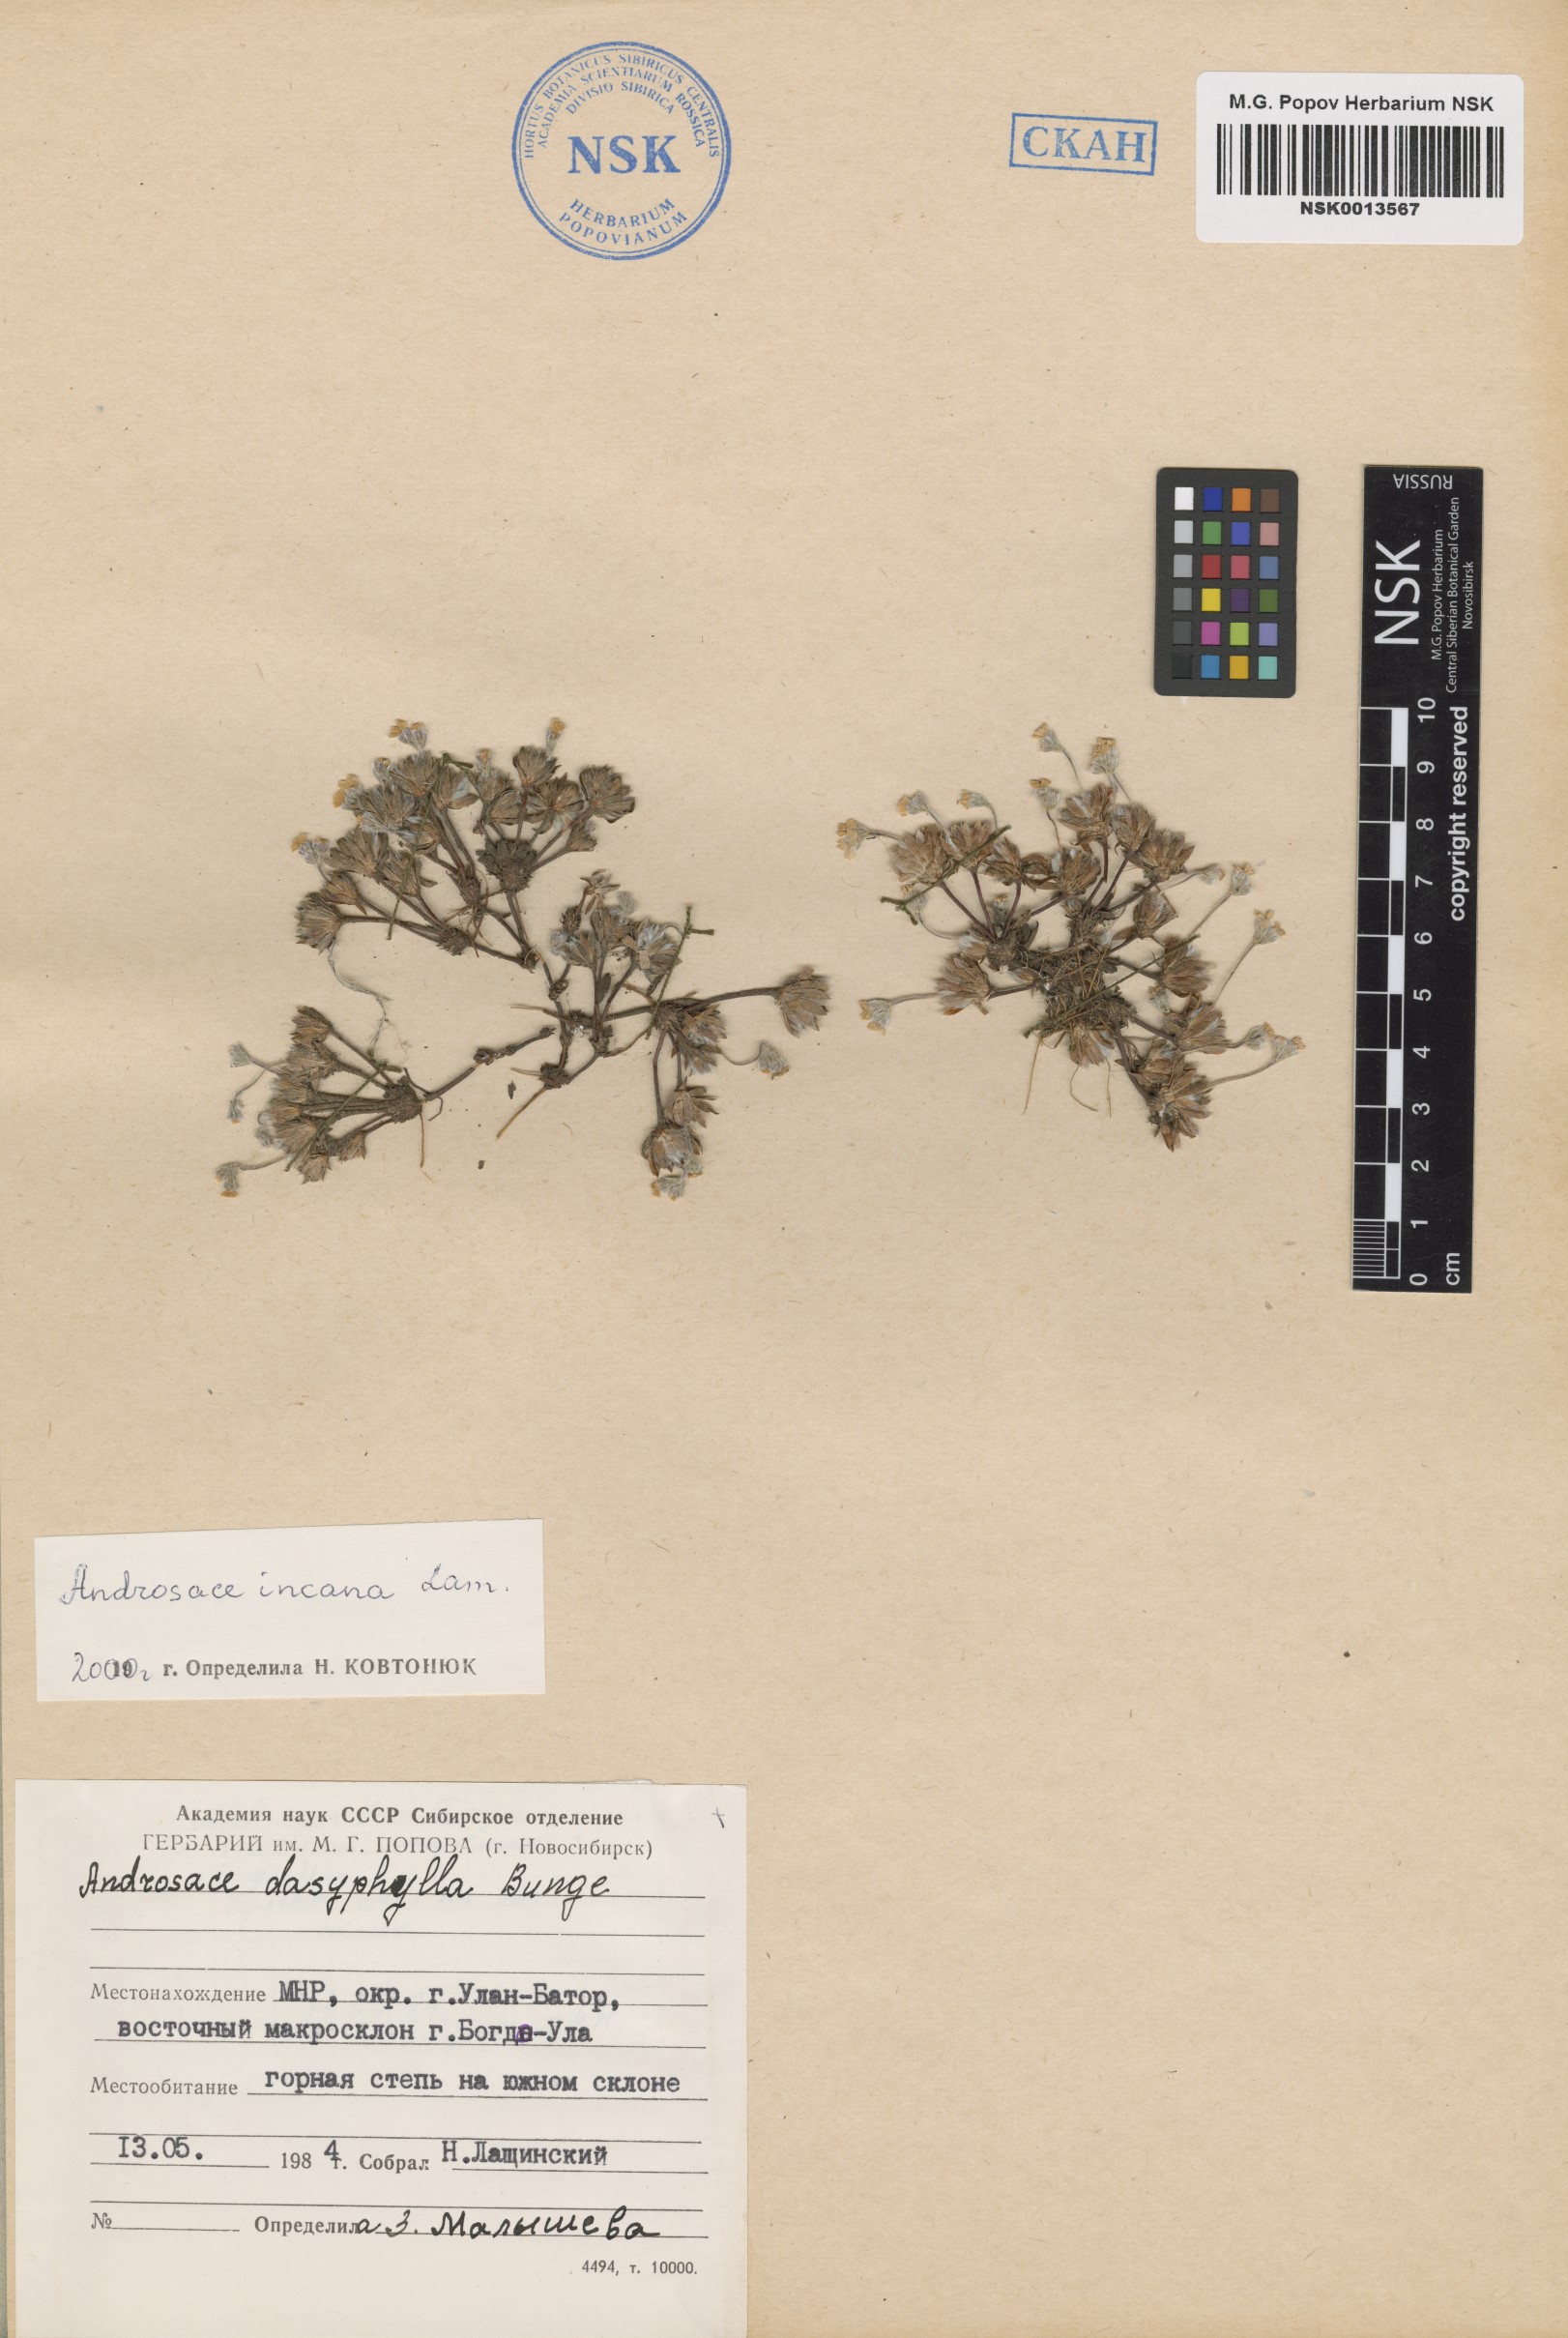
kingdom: Plantae
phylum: Tracheophyta
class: Magnoliopsida
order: Ericales
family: Primulaceae
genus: Androsace
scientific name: Androsace incana
